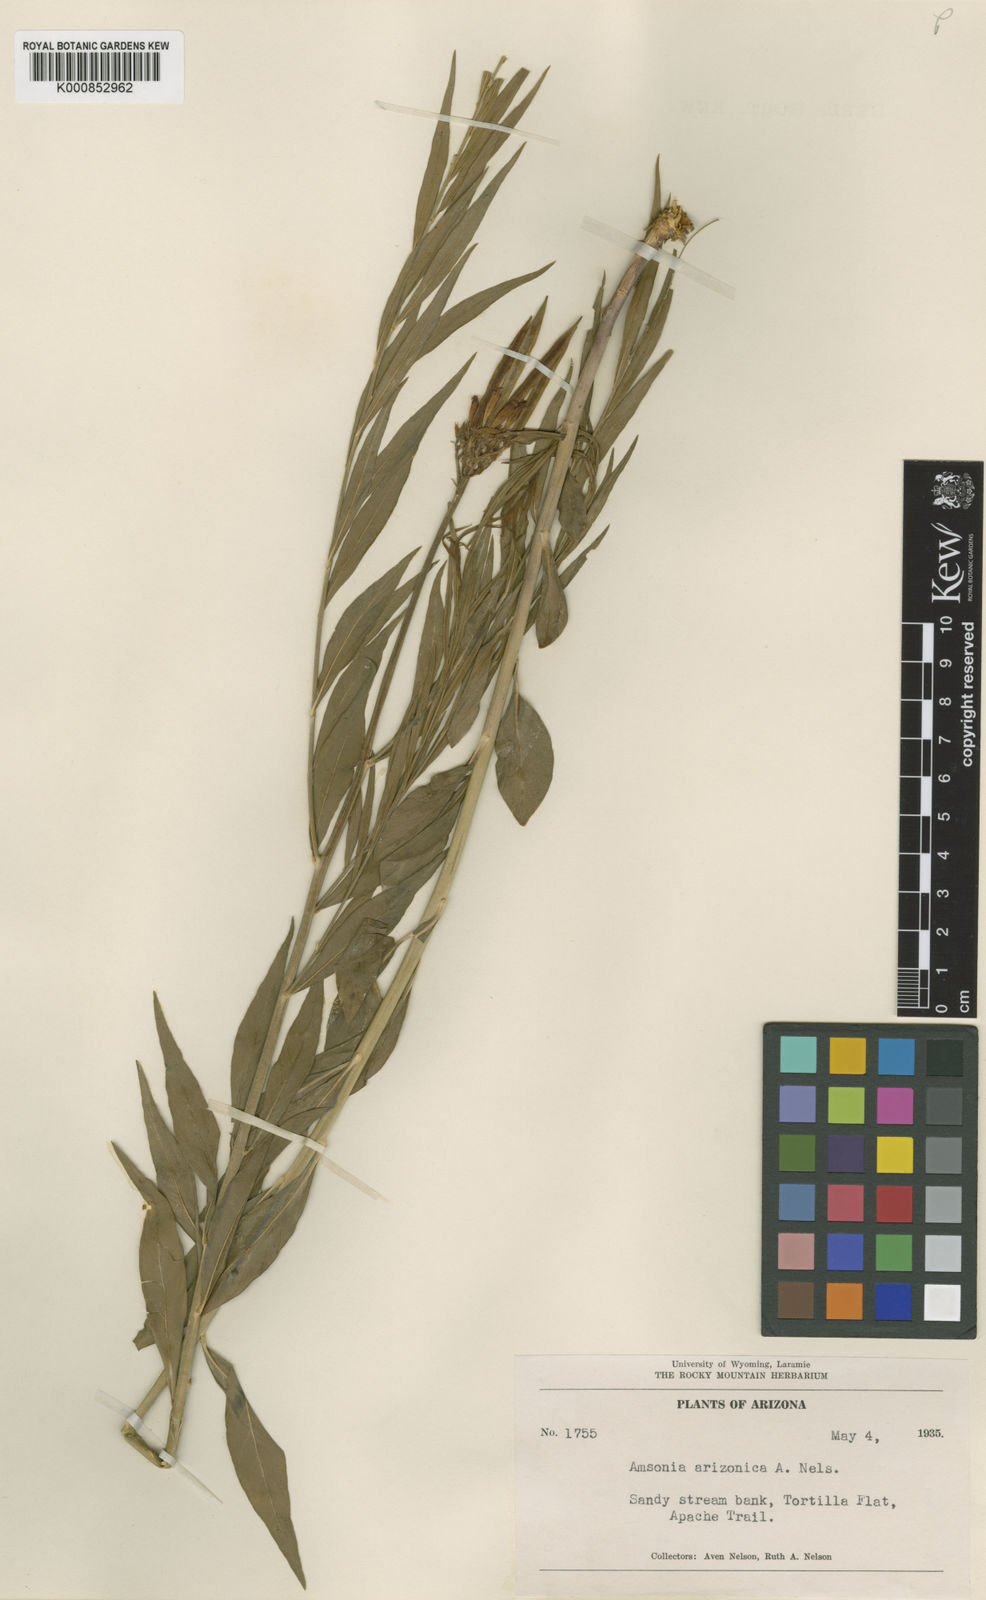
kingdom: Plantae
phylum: Tracheophyta
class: Magnoliopsida
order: Gentianales
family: Apocynaceae
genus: Amsonia
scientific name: Amsonia palmeri
